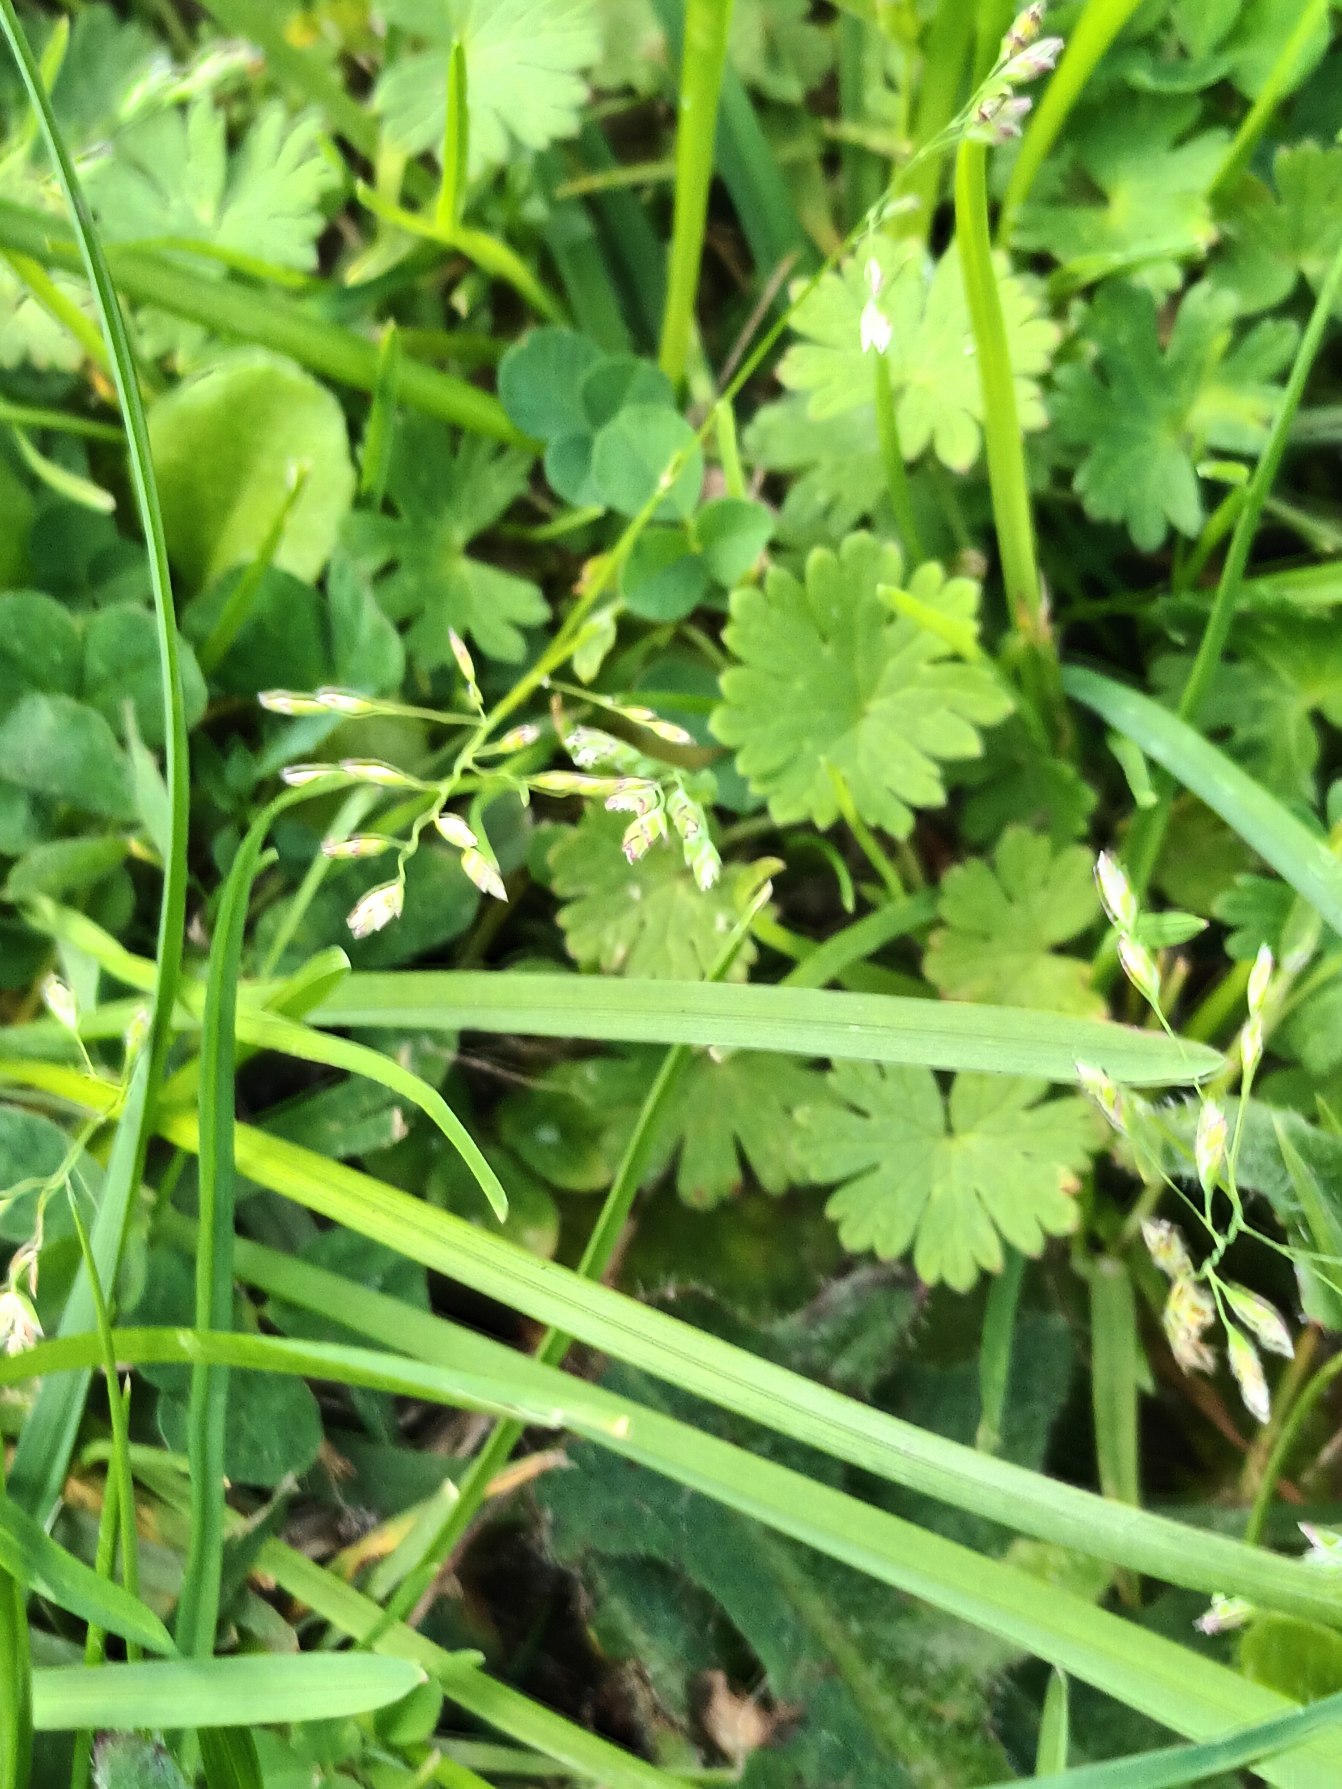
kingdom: Plantae
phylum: Tracheophyta
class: Liliopsida
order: Poales
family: Poaceae
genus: Poa
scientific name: Poa annua
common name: Enårig rapgræs
